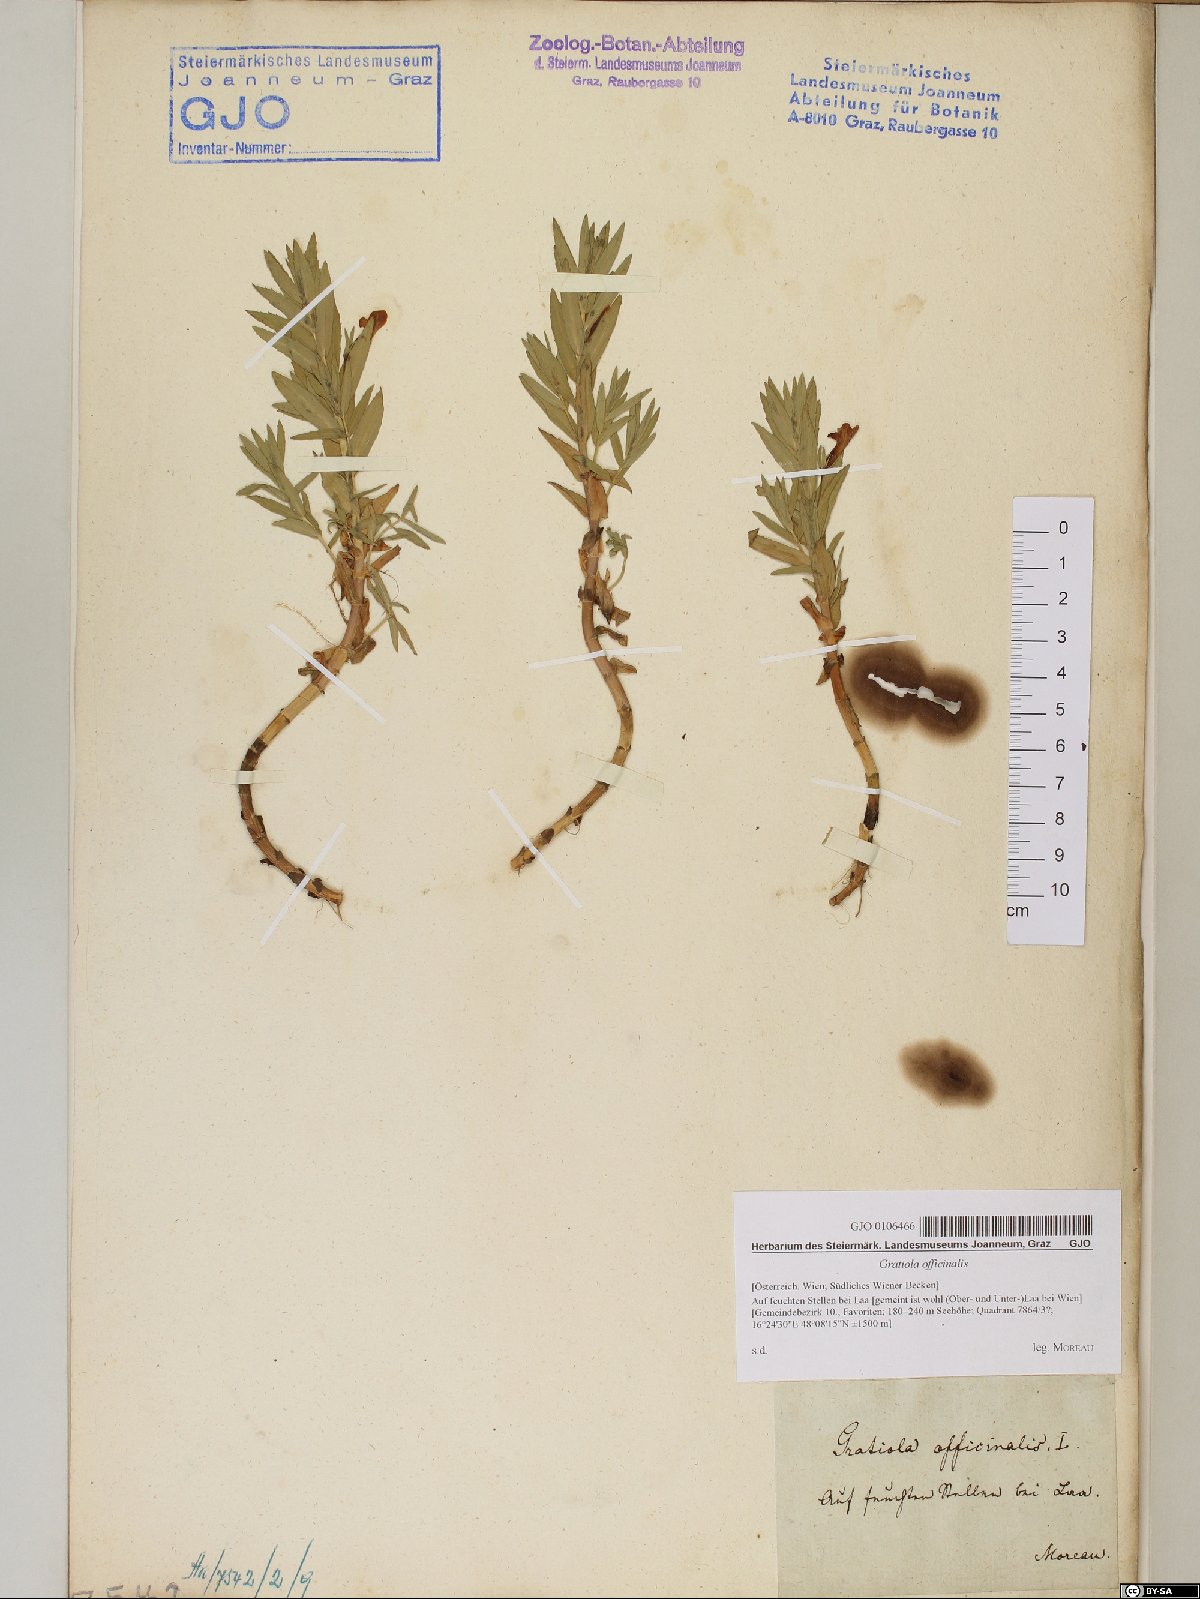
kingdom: Plantae
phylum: Tracheophyta
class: Magnoliopsida
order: Lamiales
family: Plantaginaceae
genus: Gratiola
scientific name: Gratiola officinalis
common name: Gratiola
